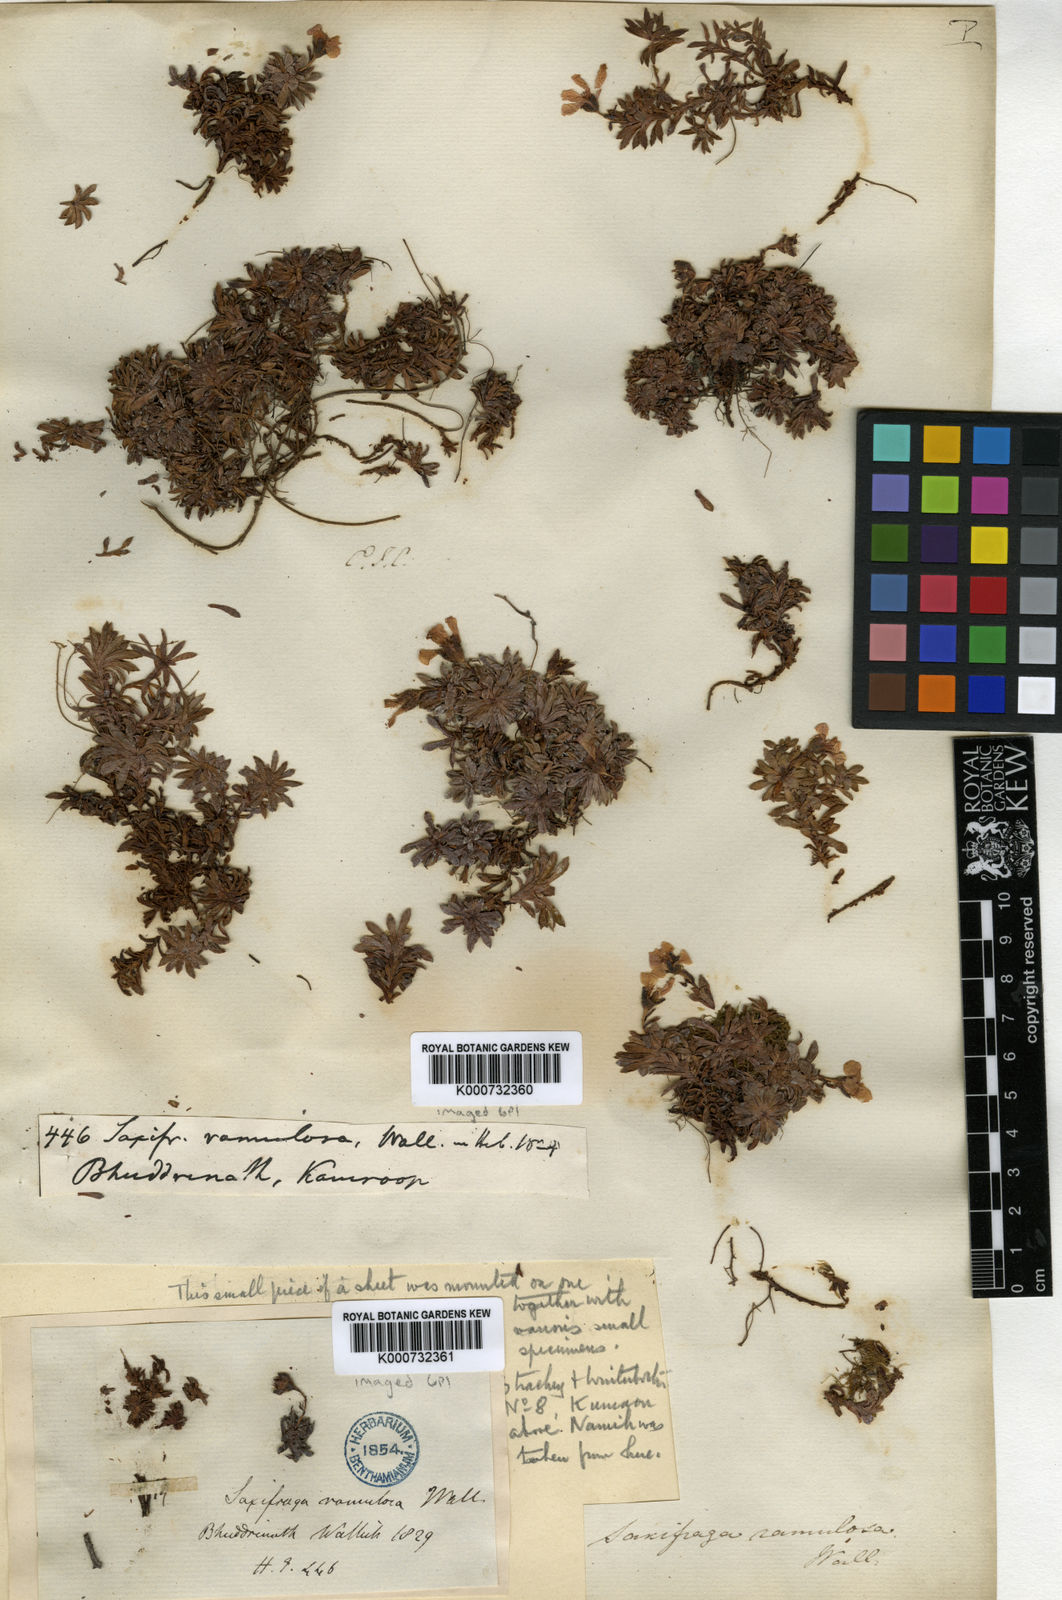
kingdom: Plantae
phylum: Tracheophyta
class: Magnoliopsida
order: Saxifragales
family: Saxifragaceae
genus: Saxifraga
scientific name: Saxifraga ramulosa
